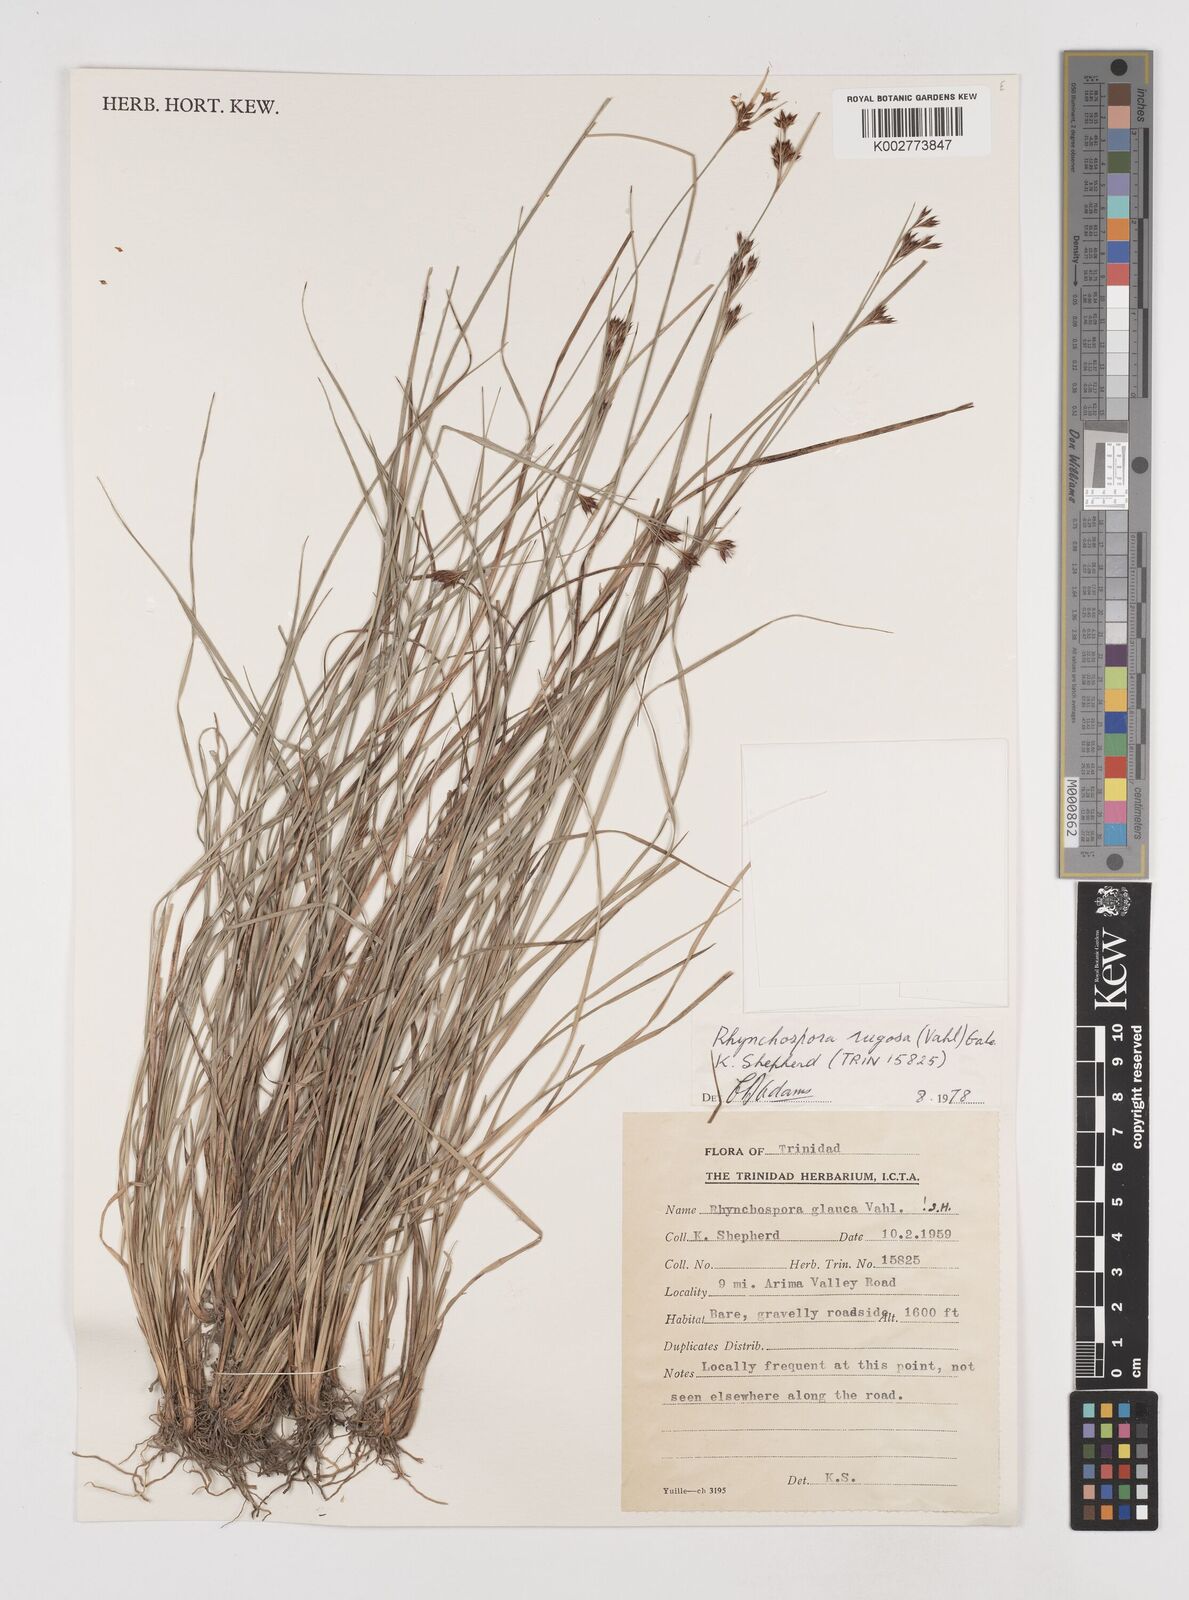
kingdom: Plantae
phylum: Tracheophyta
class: Liliopsida
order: Poales
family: Cyperaceae
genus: Rhynchospora
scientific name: Rhynchospora rugosa
